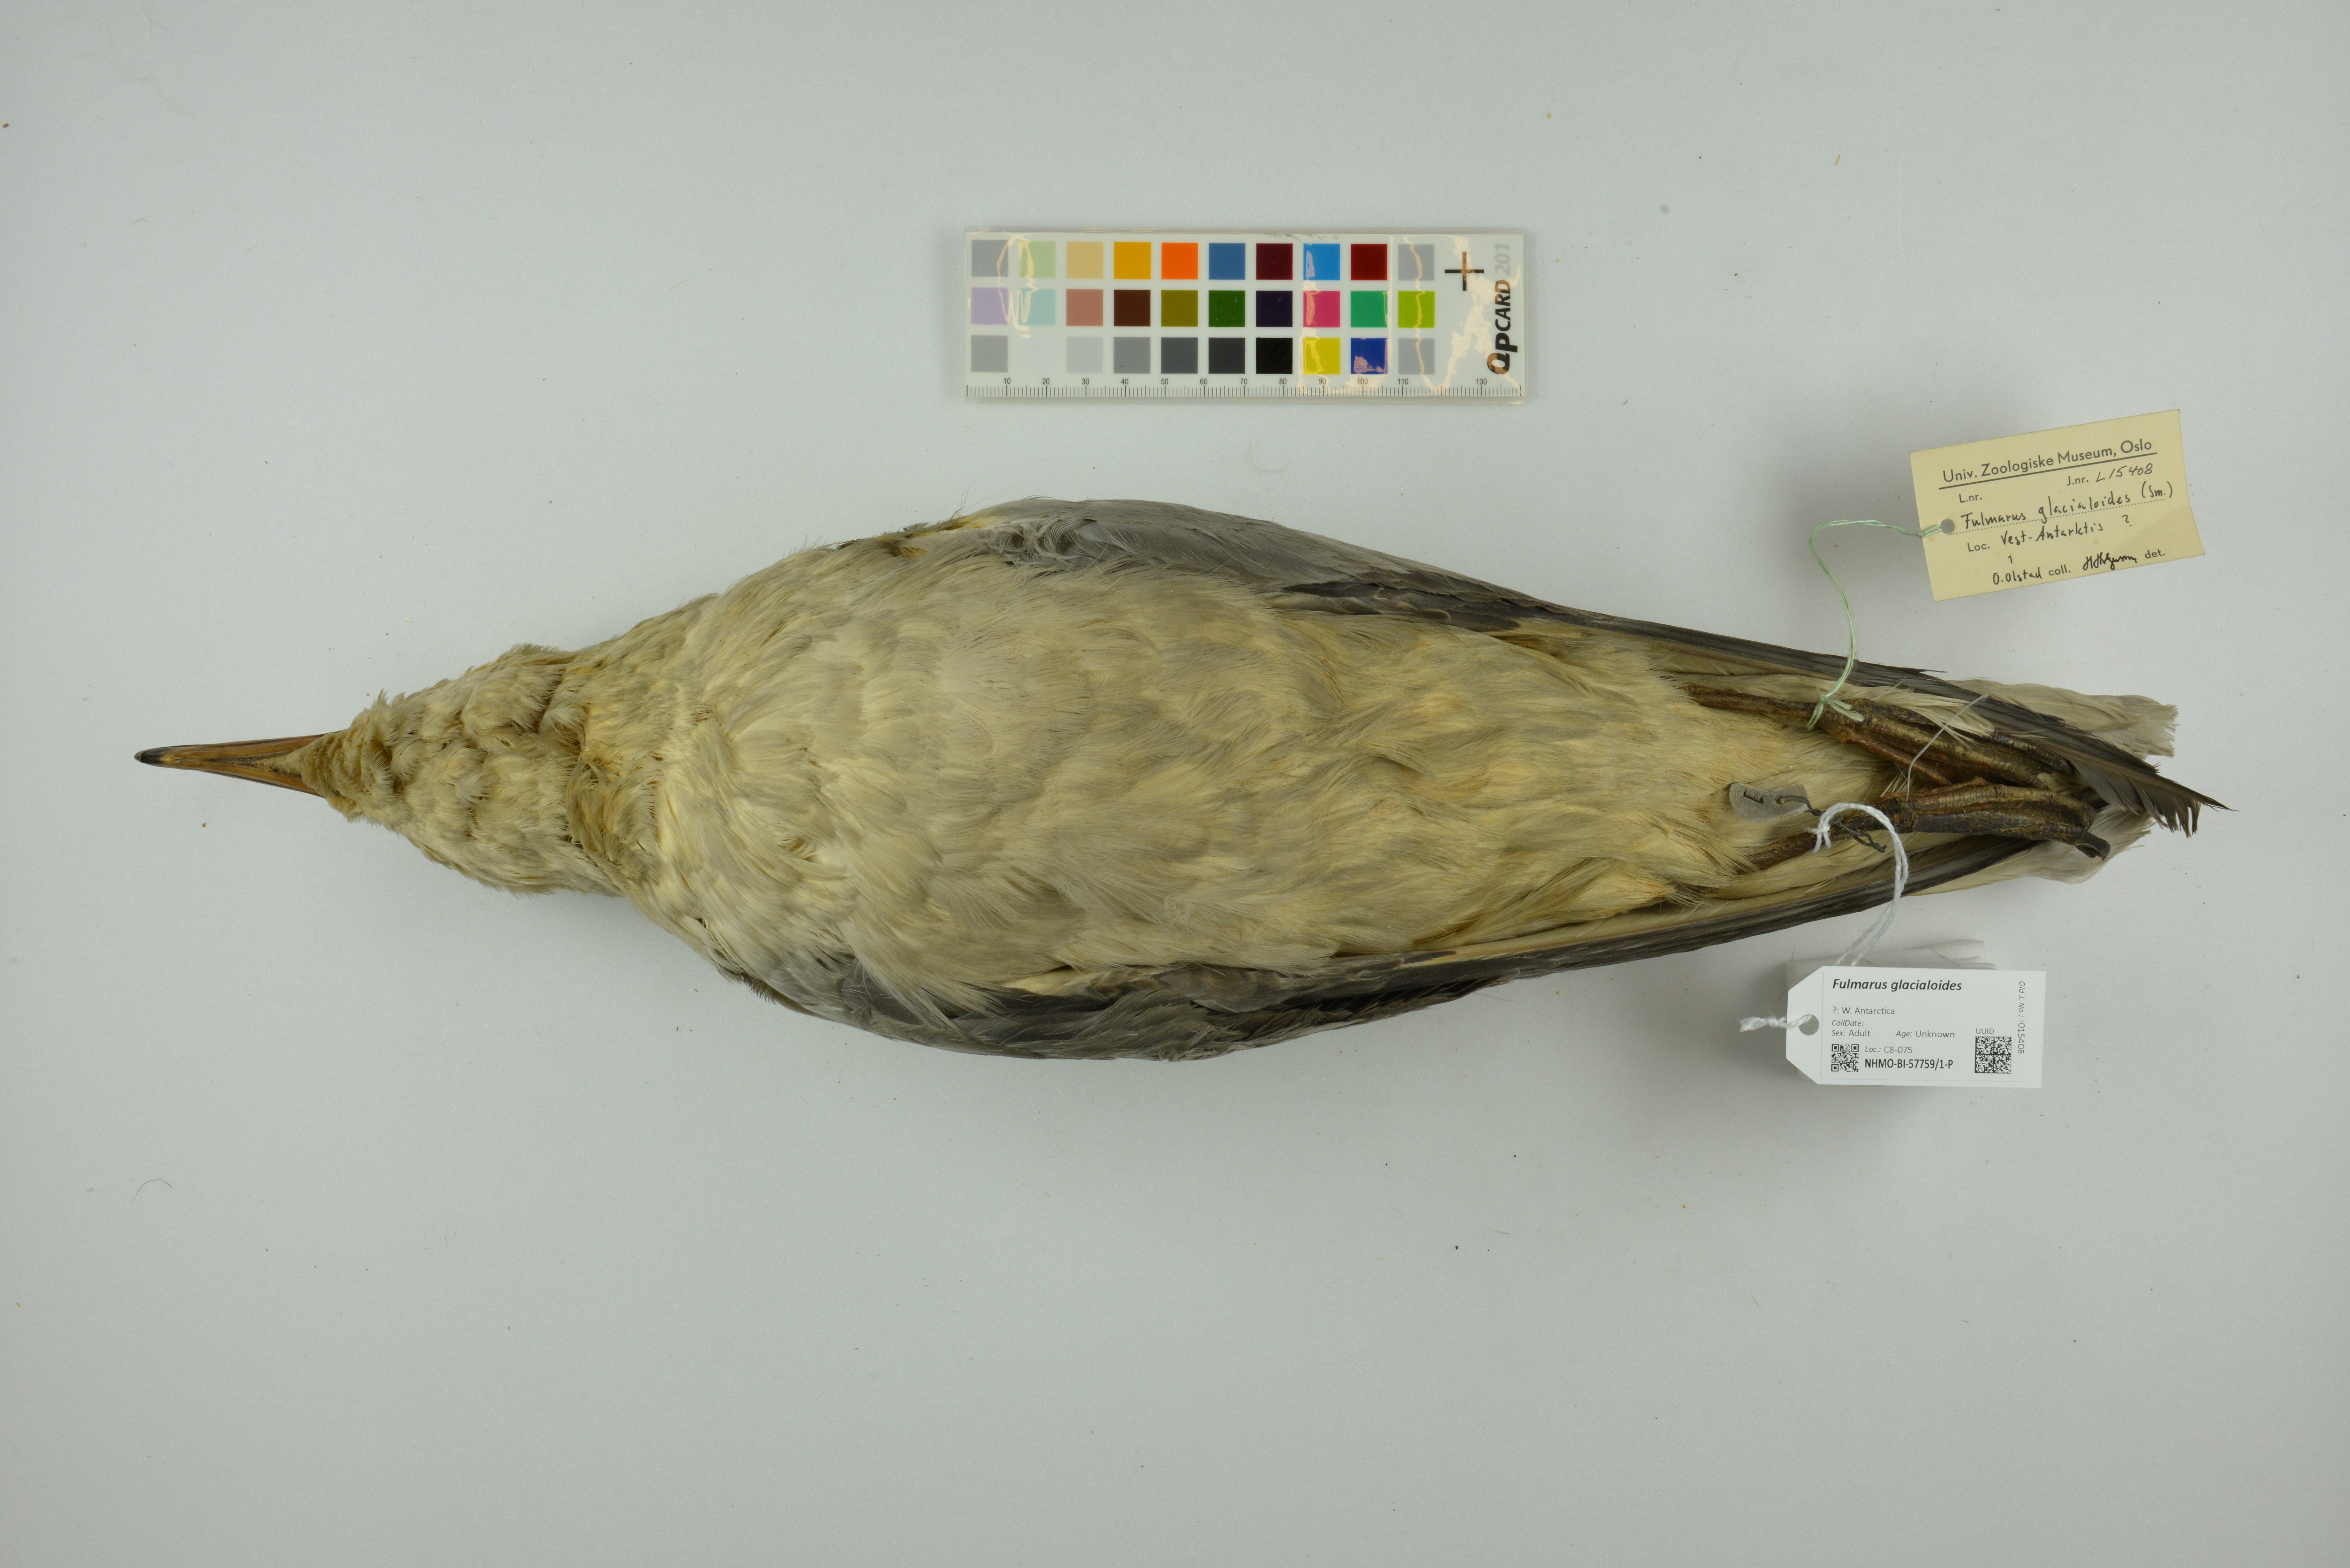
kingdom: Animalia
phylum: Chordata
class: Aves
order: Procellariiformes
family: Procellariidae
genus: Fulmarus
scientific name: Fulmarus glacialoides
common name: Southern fulmar
